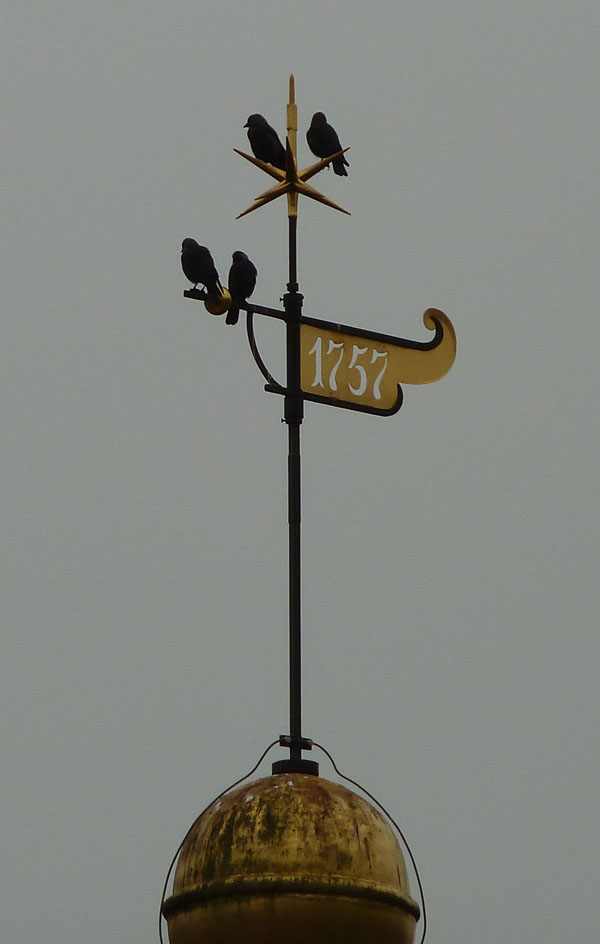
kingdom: Animalia
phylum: Chordata
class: Aves
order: Passeriformes
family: Corvidae
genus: Coloeus
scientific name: Coloeus monedula
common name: Western jackdaw
